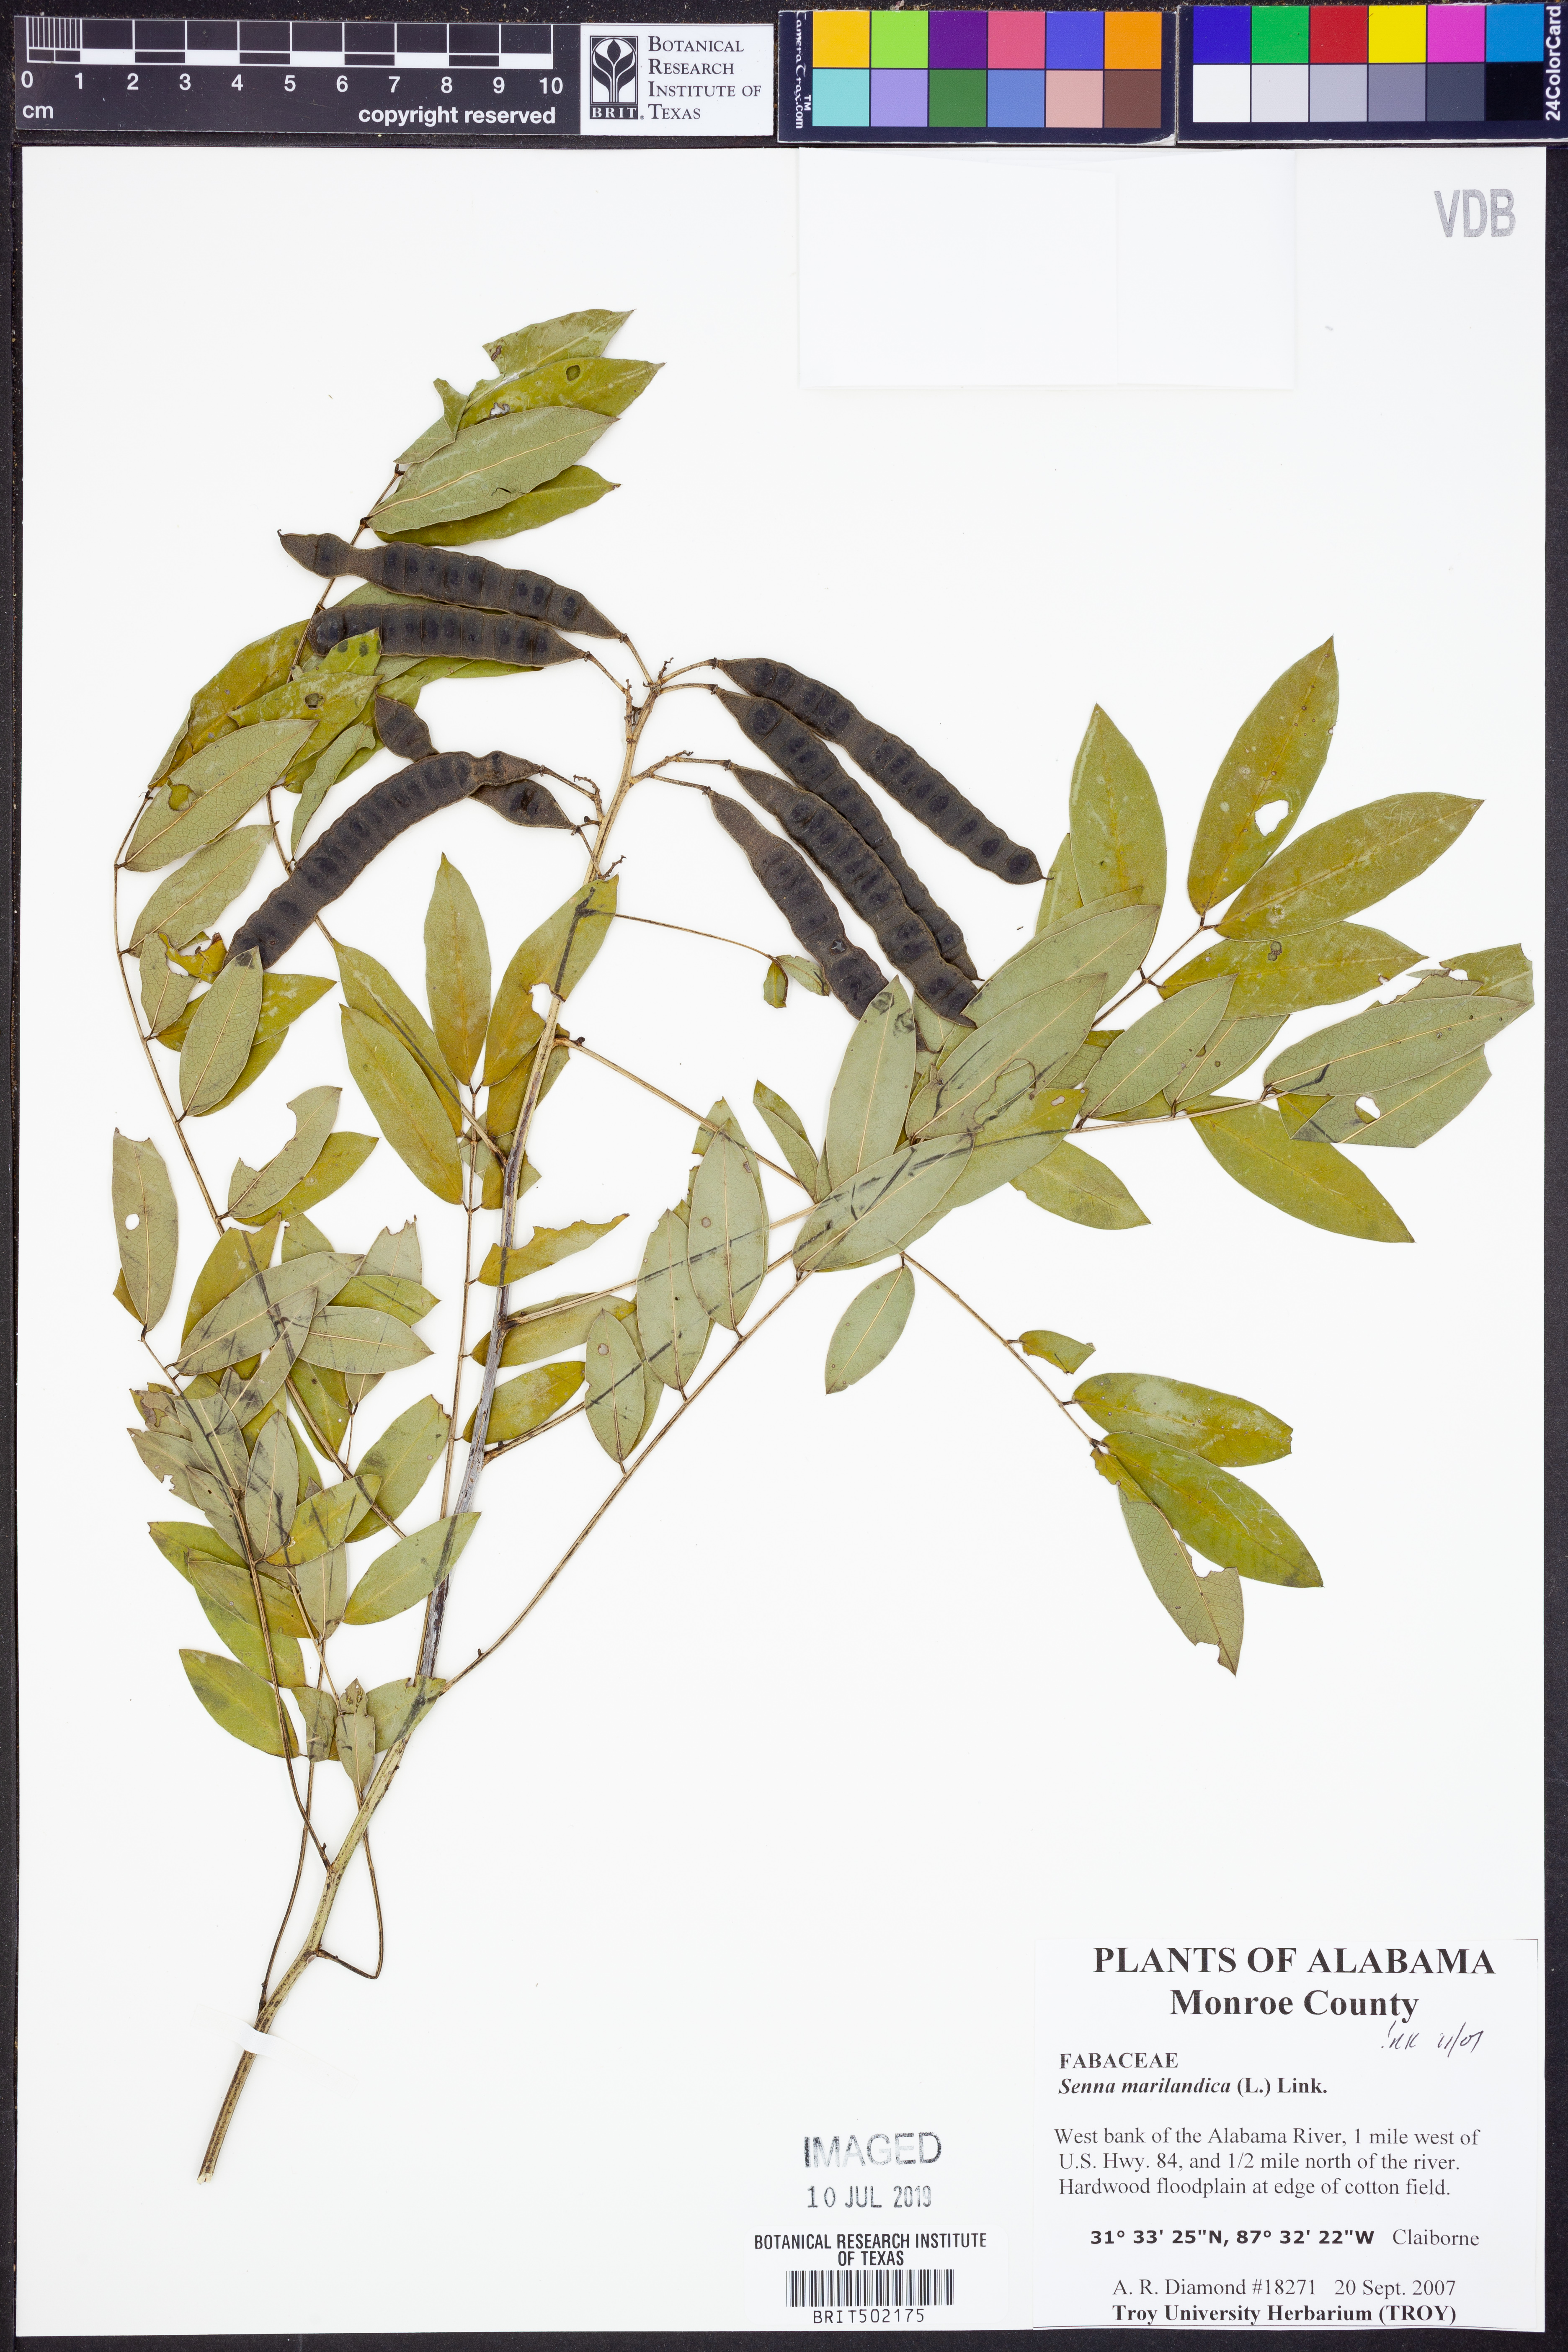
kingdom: Plantae
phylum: Tracheophyta
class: Magnoliopsida
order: Fabales
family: Fabaceae
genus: Senna
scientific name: Senna marilandica
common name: American senna
